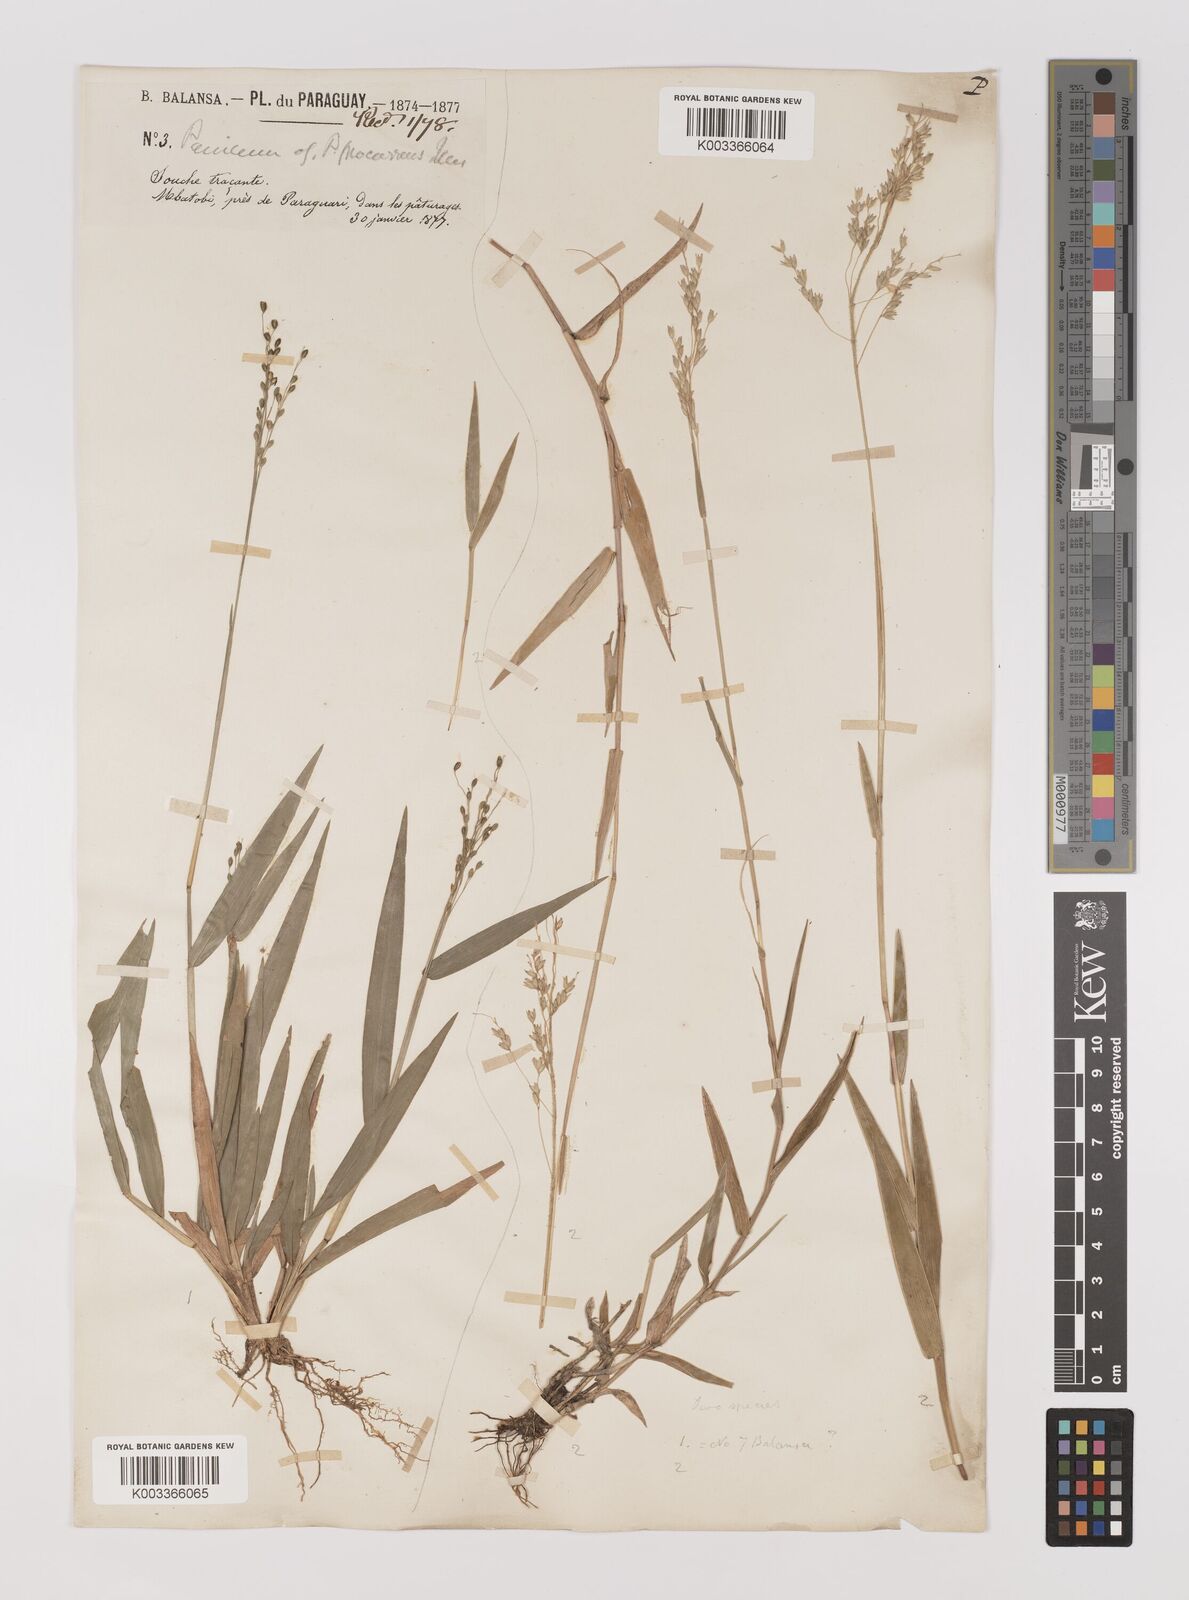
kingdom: Plantae
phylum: Tracheophyta
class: Liliopsida
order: Poales
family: Poaceae
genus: Oedochloa
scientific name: Oedochloa procurrens
